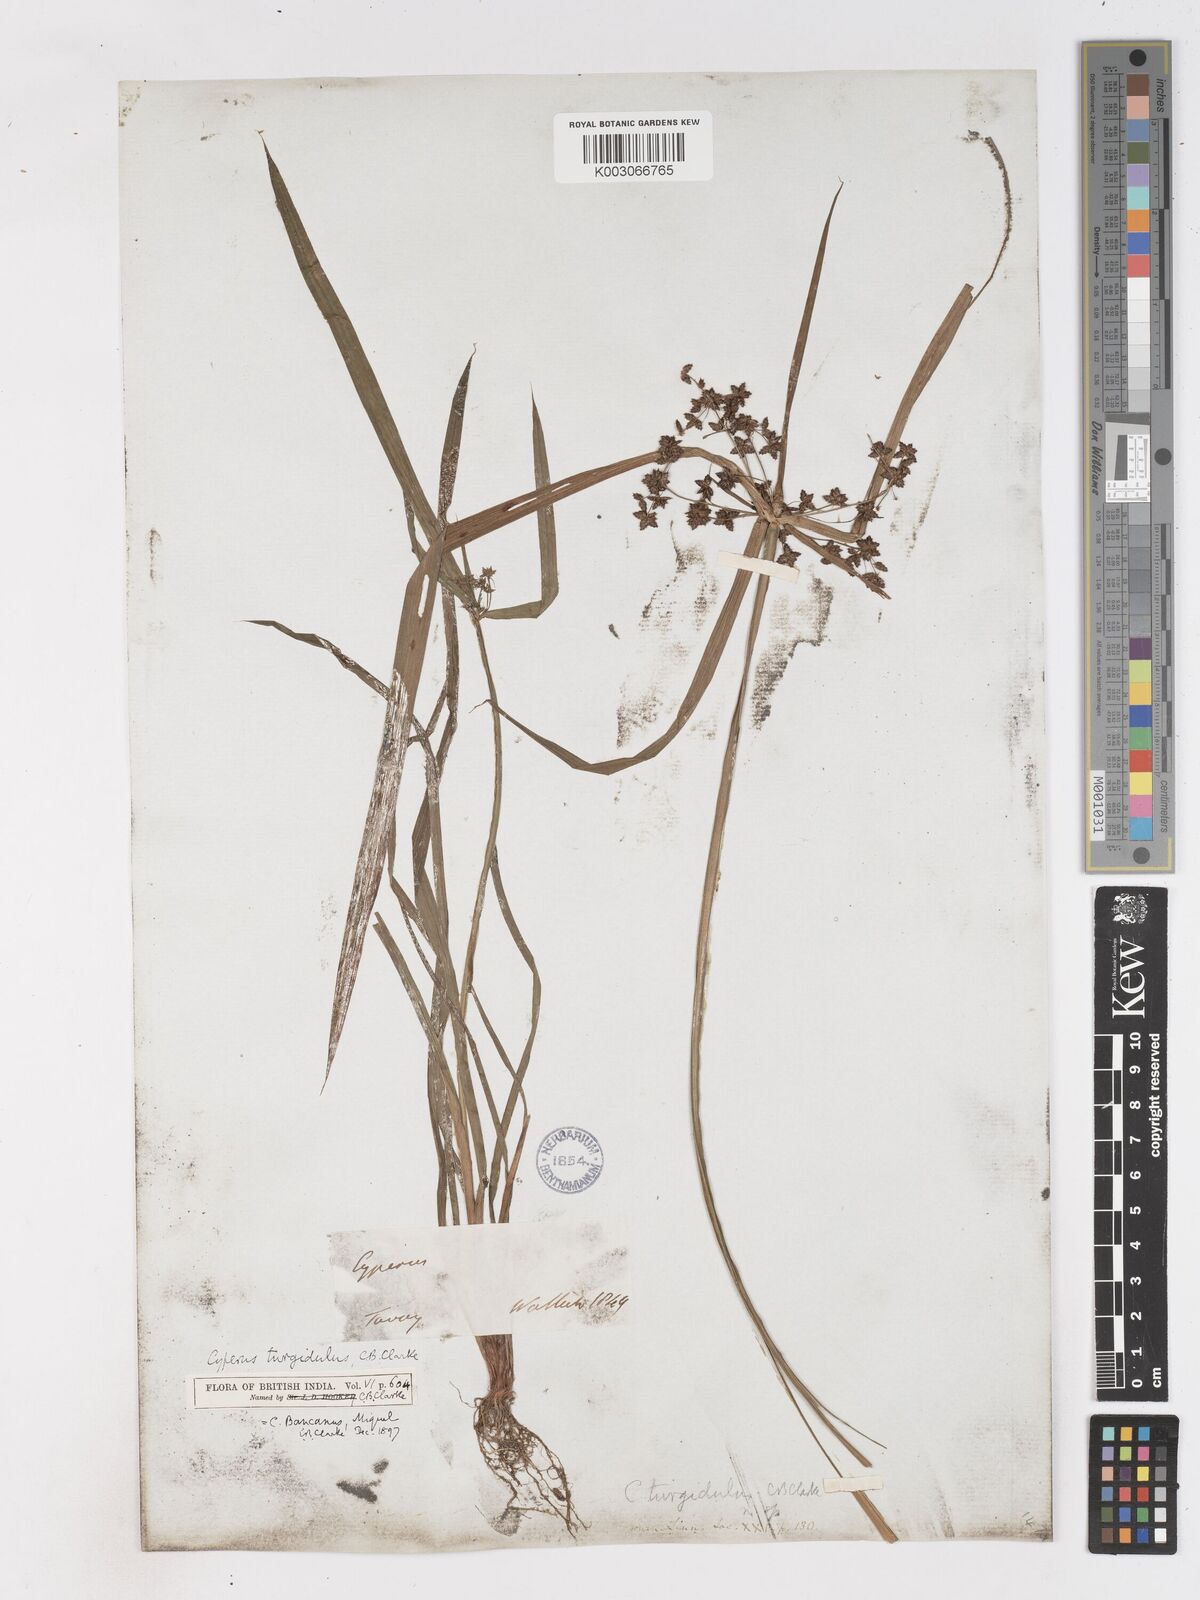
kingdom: Plantae
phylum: Tracheophyta
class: Liliopsida
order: Poales
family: Cyperaceae
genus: Cyperus
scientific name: Cyperus trialatus
